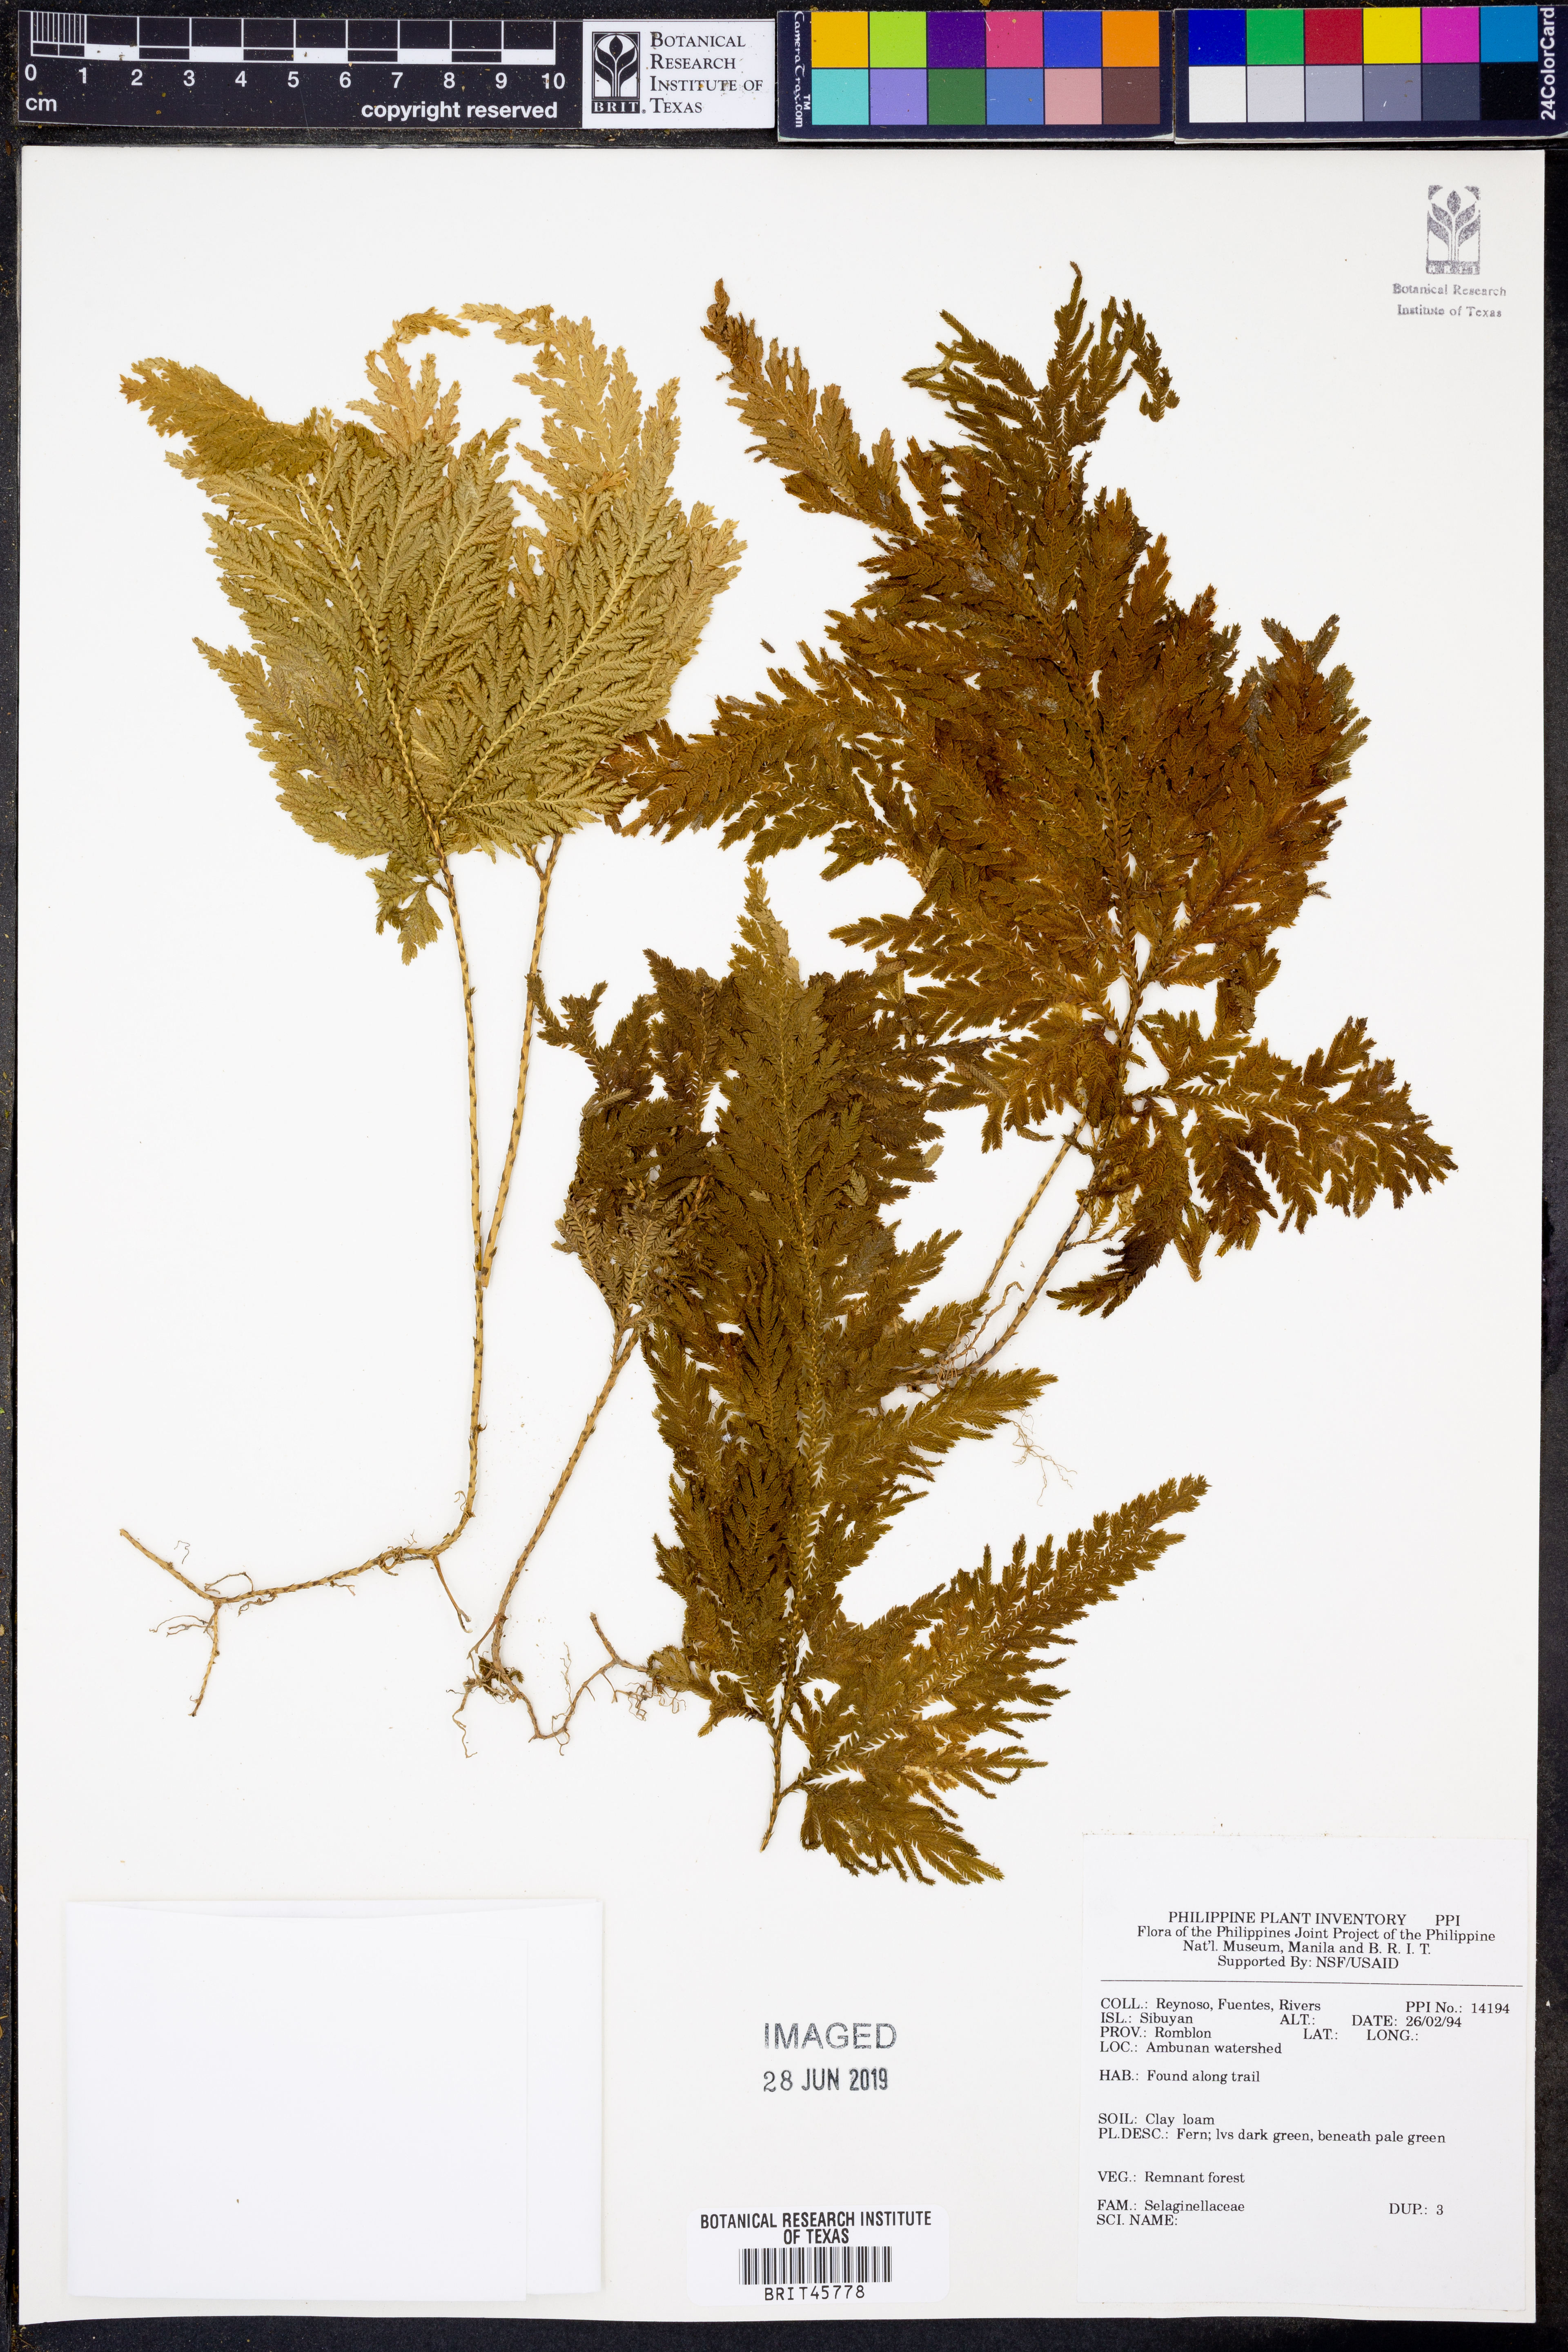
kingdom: Plantae
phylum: Tracheophyta
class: Lycopodiopsida
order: Selaginellales
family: Selaginellaceae
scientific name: Selaginellaceae
